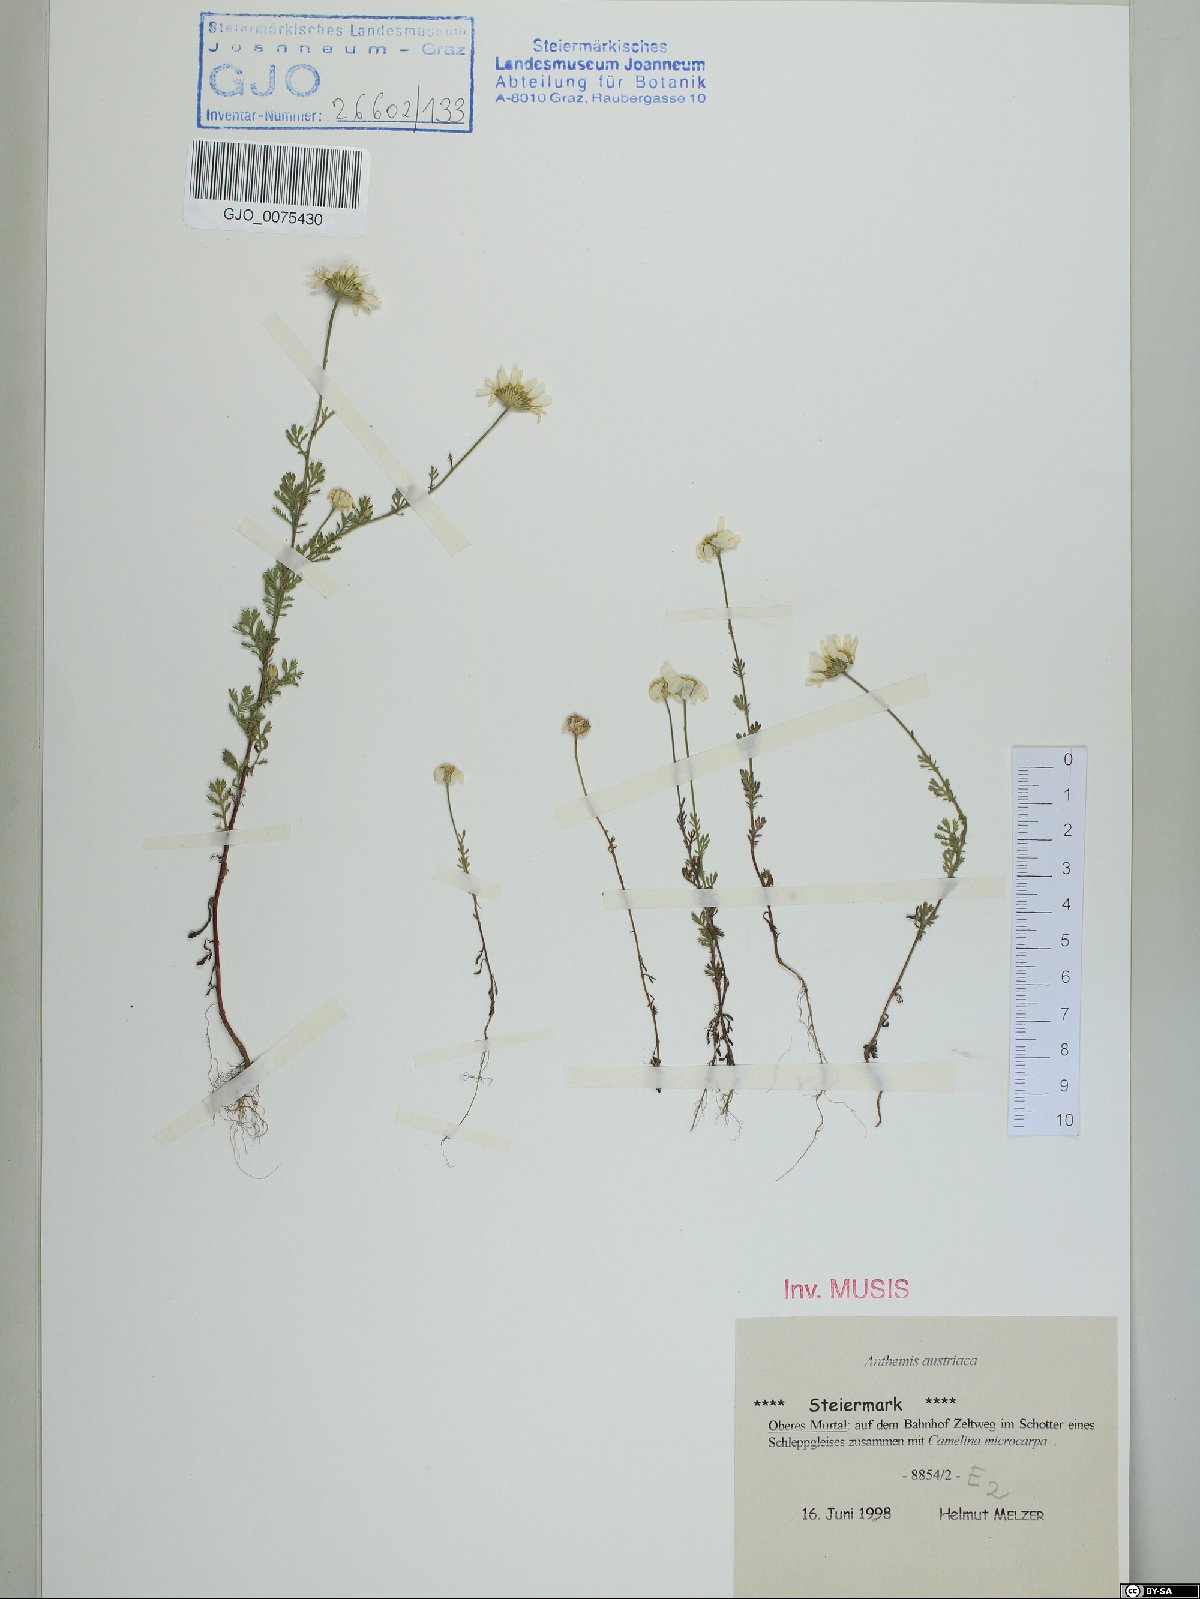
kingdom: Plantae
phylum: Tracheophyta
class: Magnoliopsida
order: Asterales
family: Asteraceae
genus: Cota
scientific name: Cota austriaca
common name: Austrian chamomile
